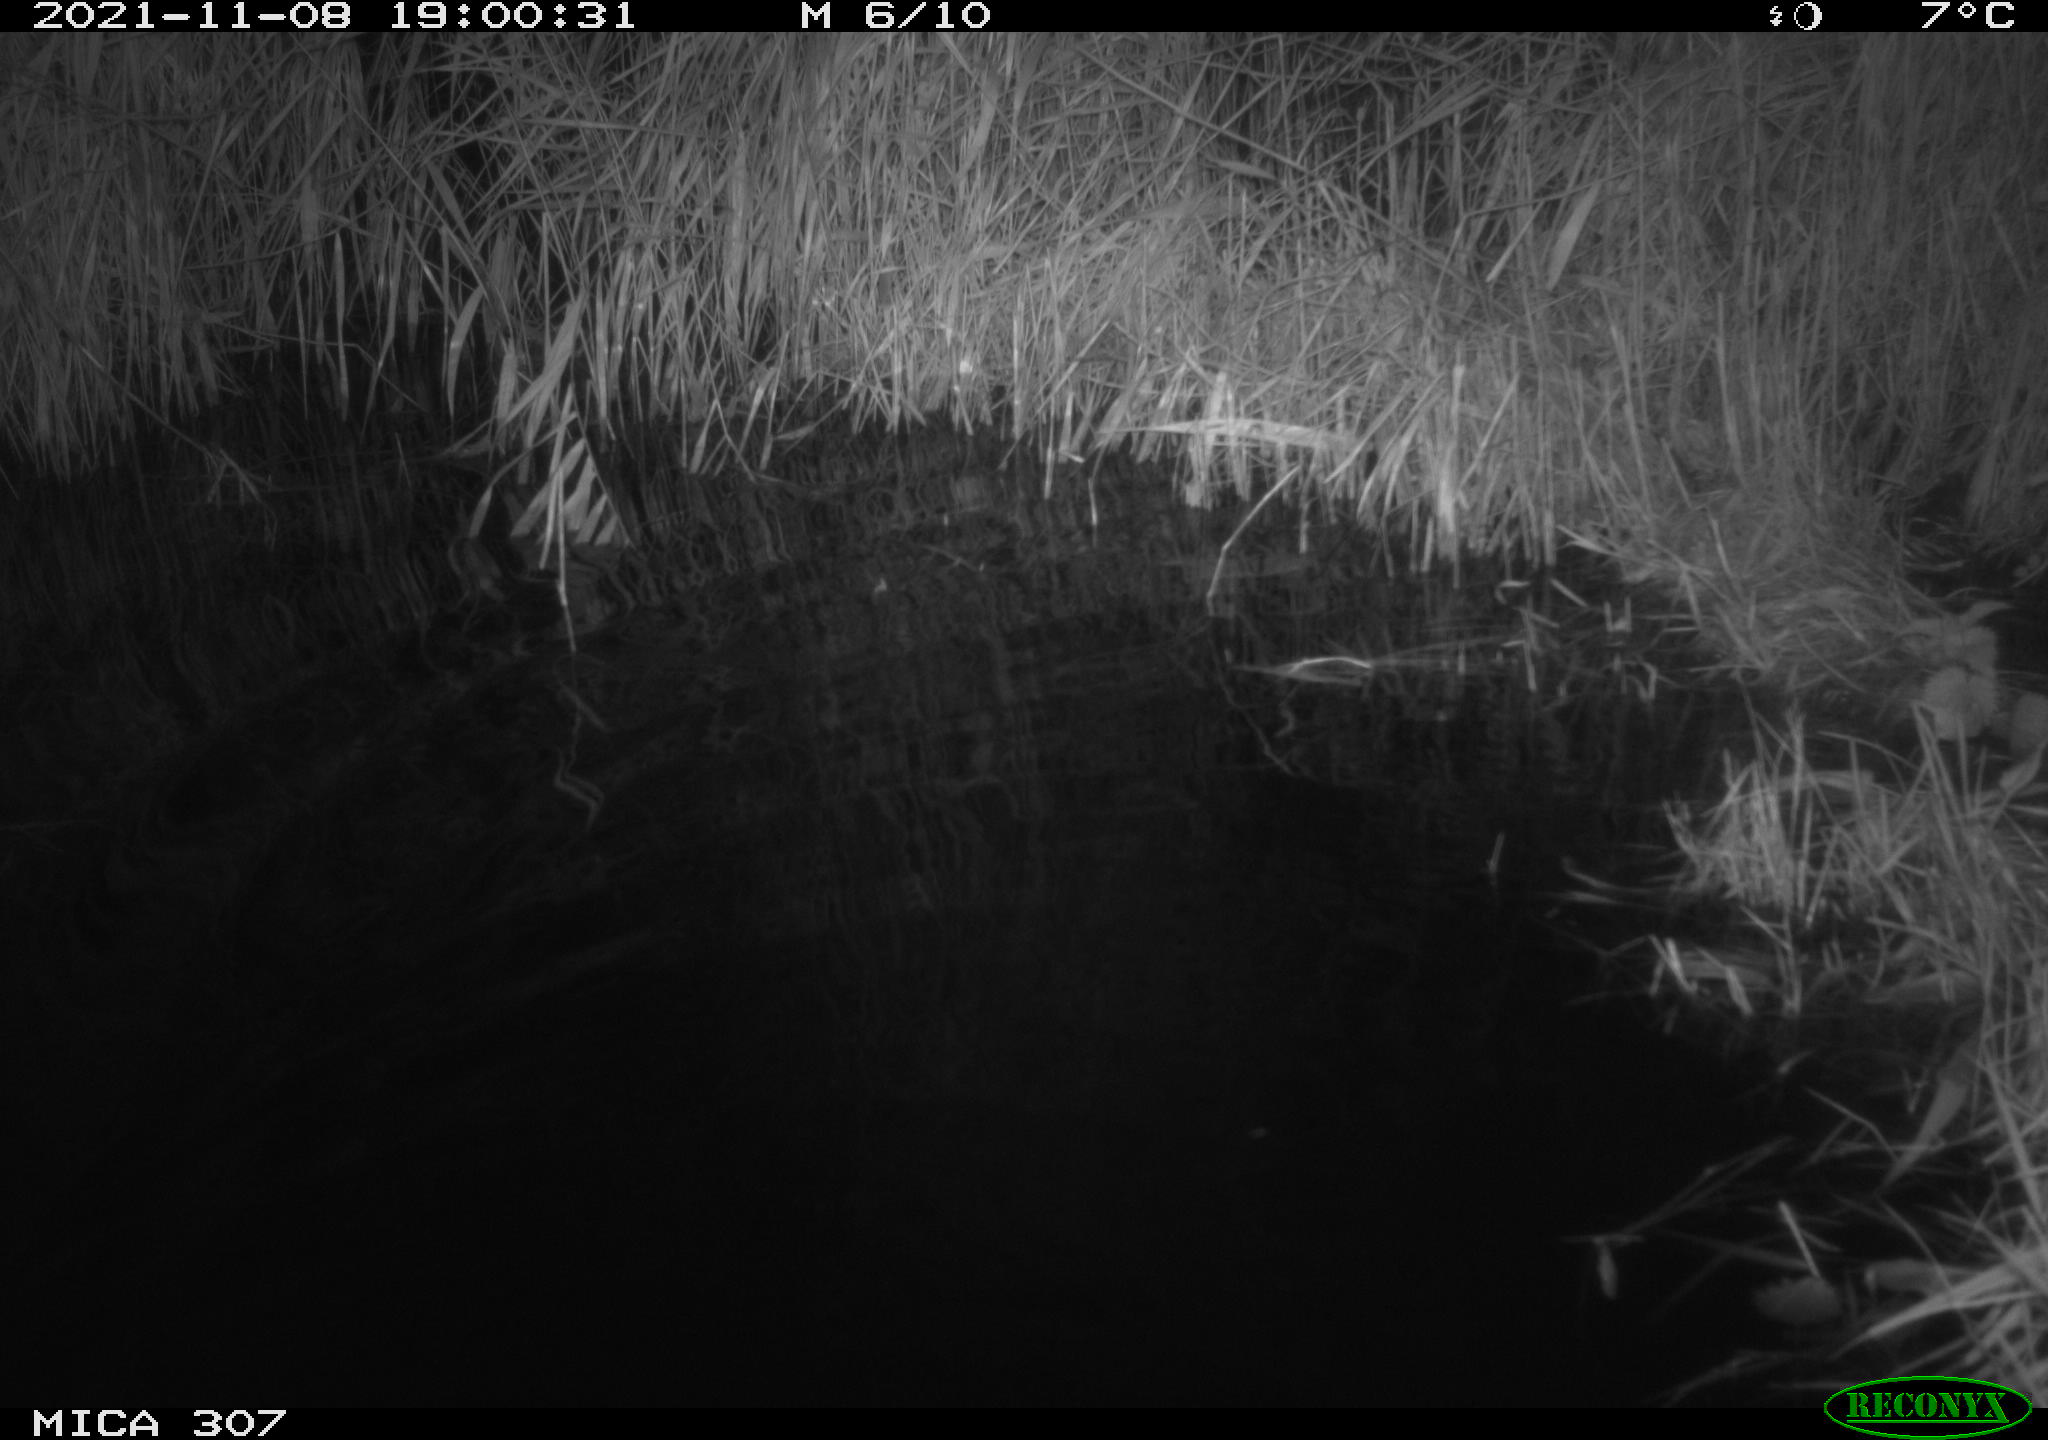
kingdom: Animalia
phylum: Chordata
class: Mammalia
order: Rodentia
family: Muridae
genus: Rattus
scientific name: Rattus norvegicus
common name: Brown rat
